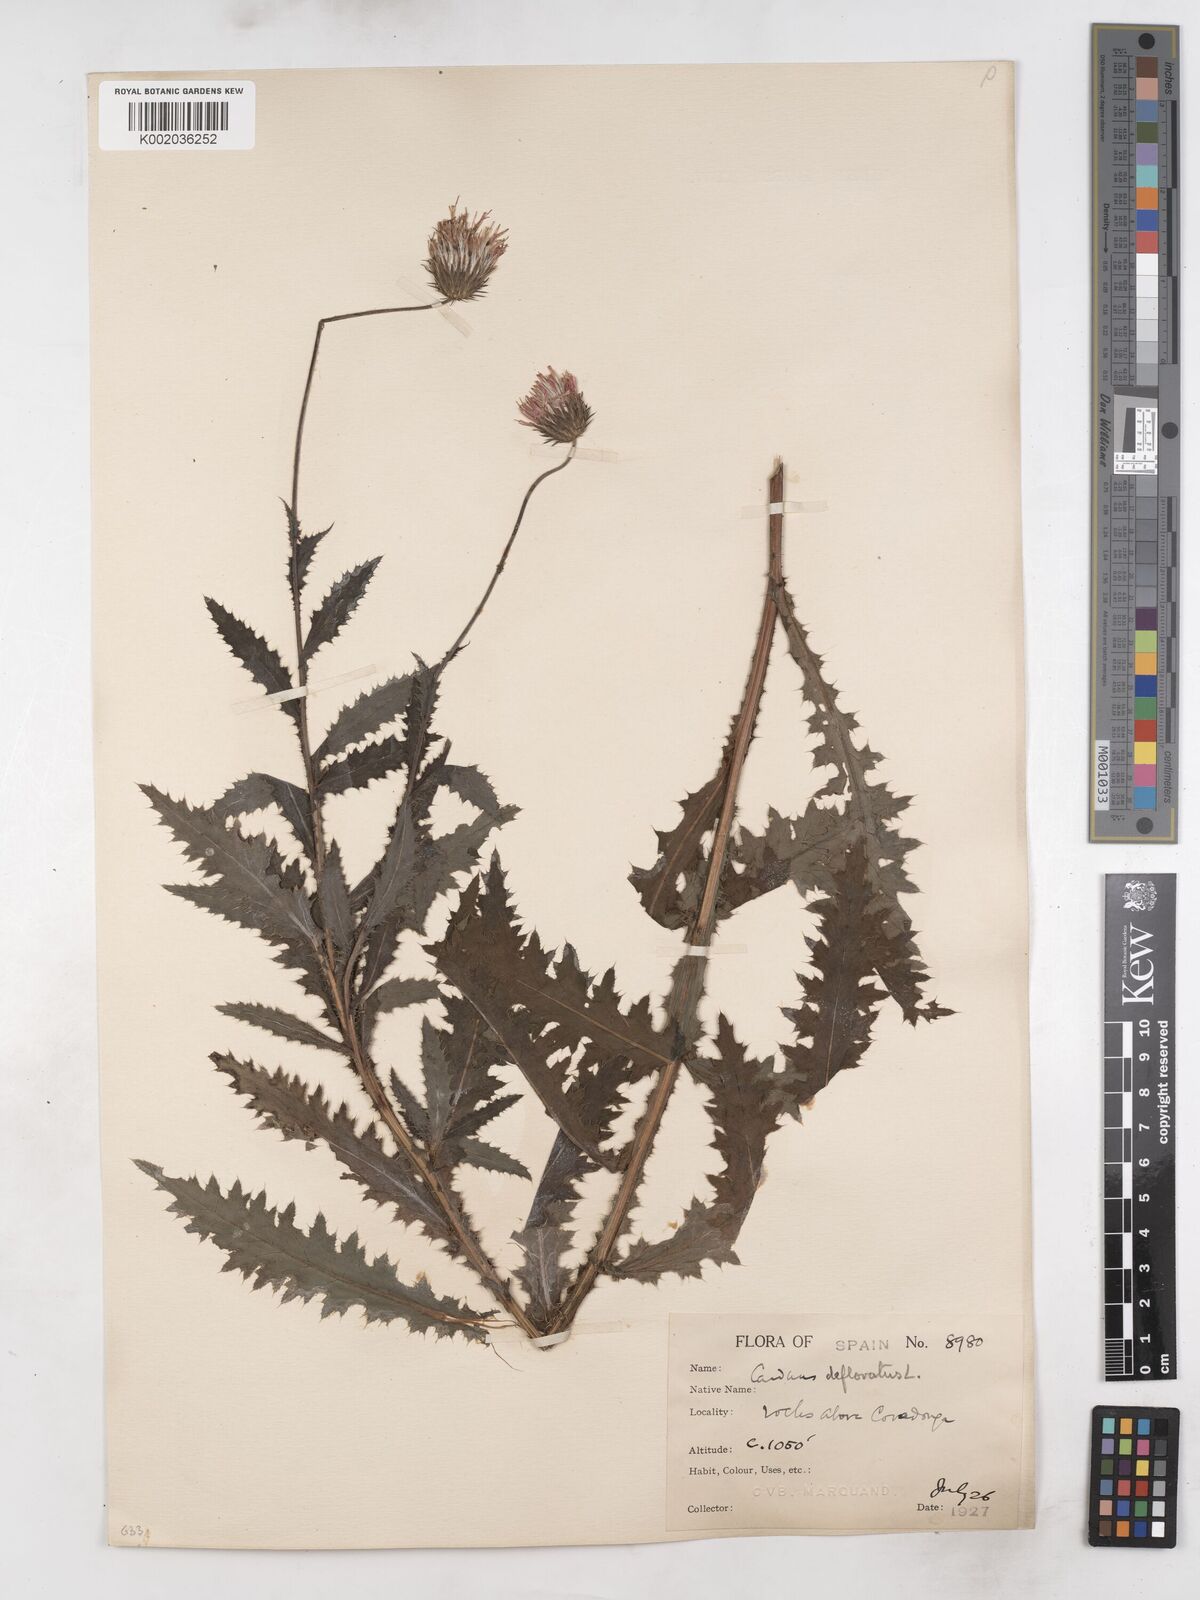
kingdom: Plantae
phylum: Tracheophyta
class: Magnoliopsida
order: Asterales
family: Asteraceae
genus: Carduus
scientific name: Carduus defloratus
